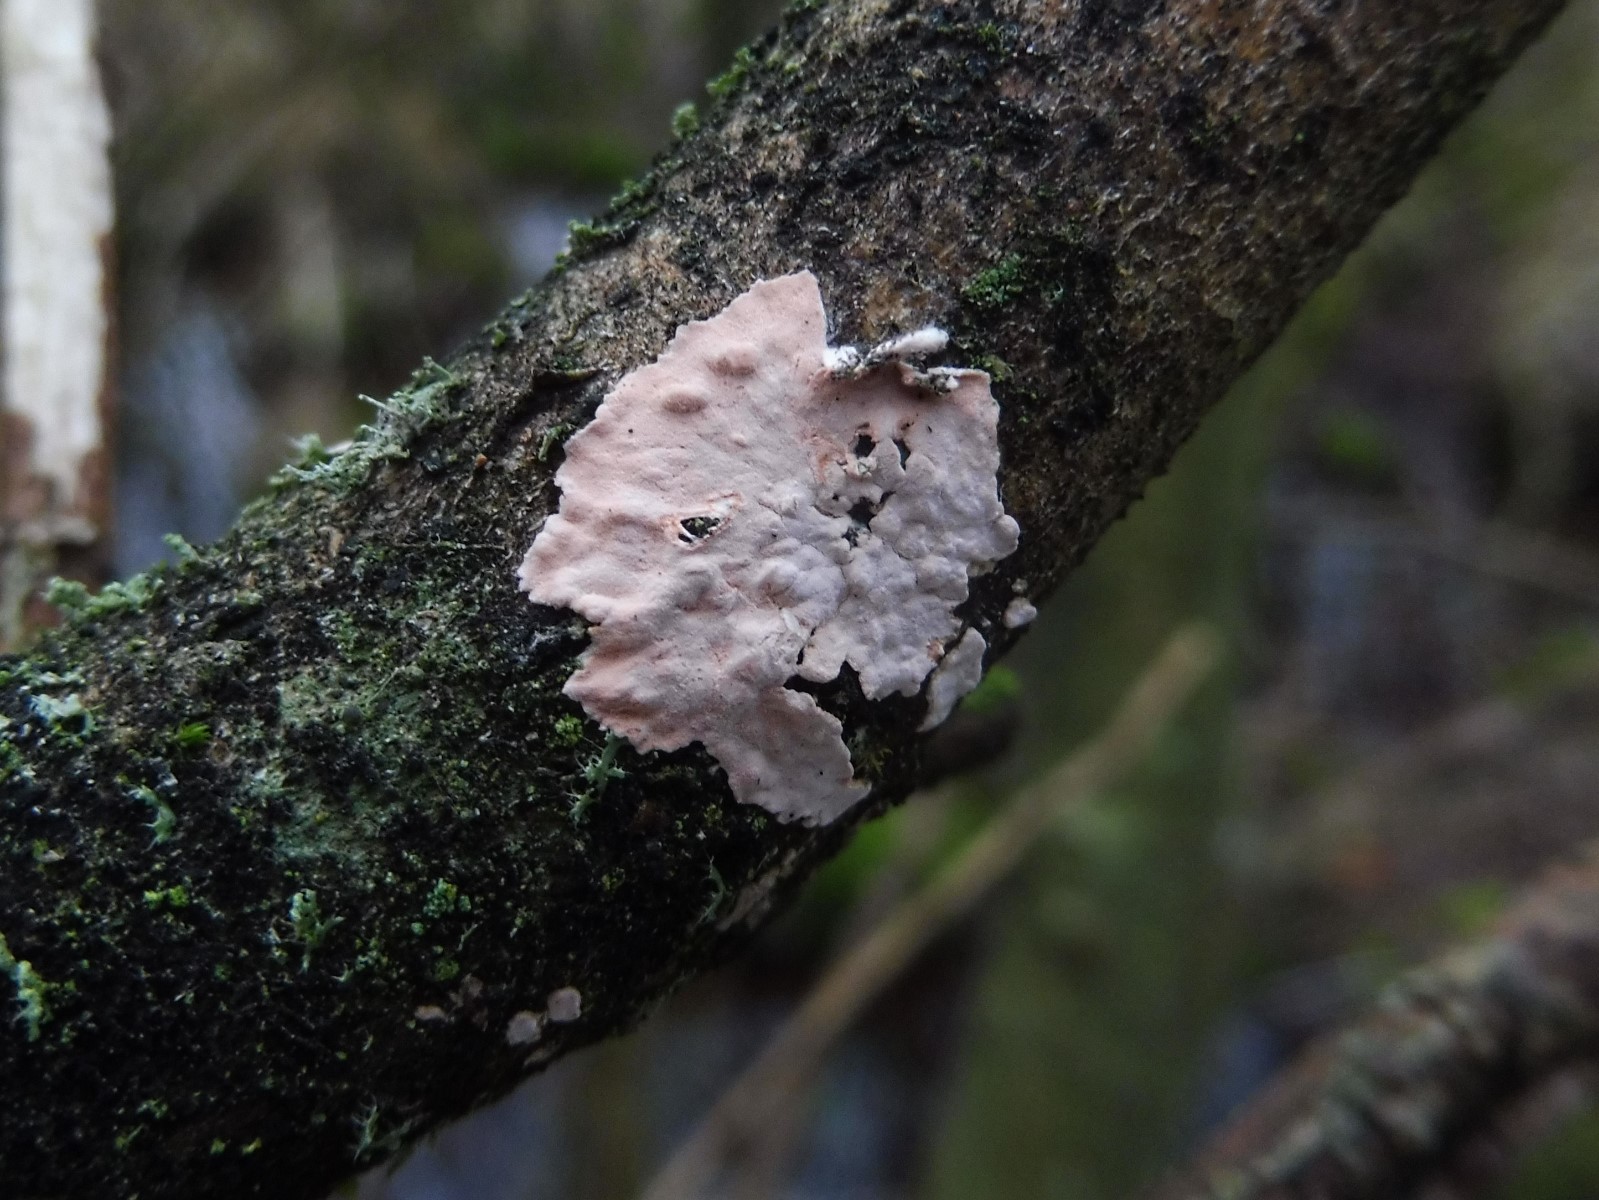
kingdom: Fungi
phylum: Basidiomycota
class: Agaricomycetes
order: Corticiales
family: Corticiaceae
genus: Corticium
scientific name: Corticium roseum
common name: rosa barkskind
